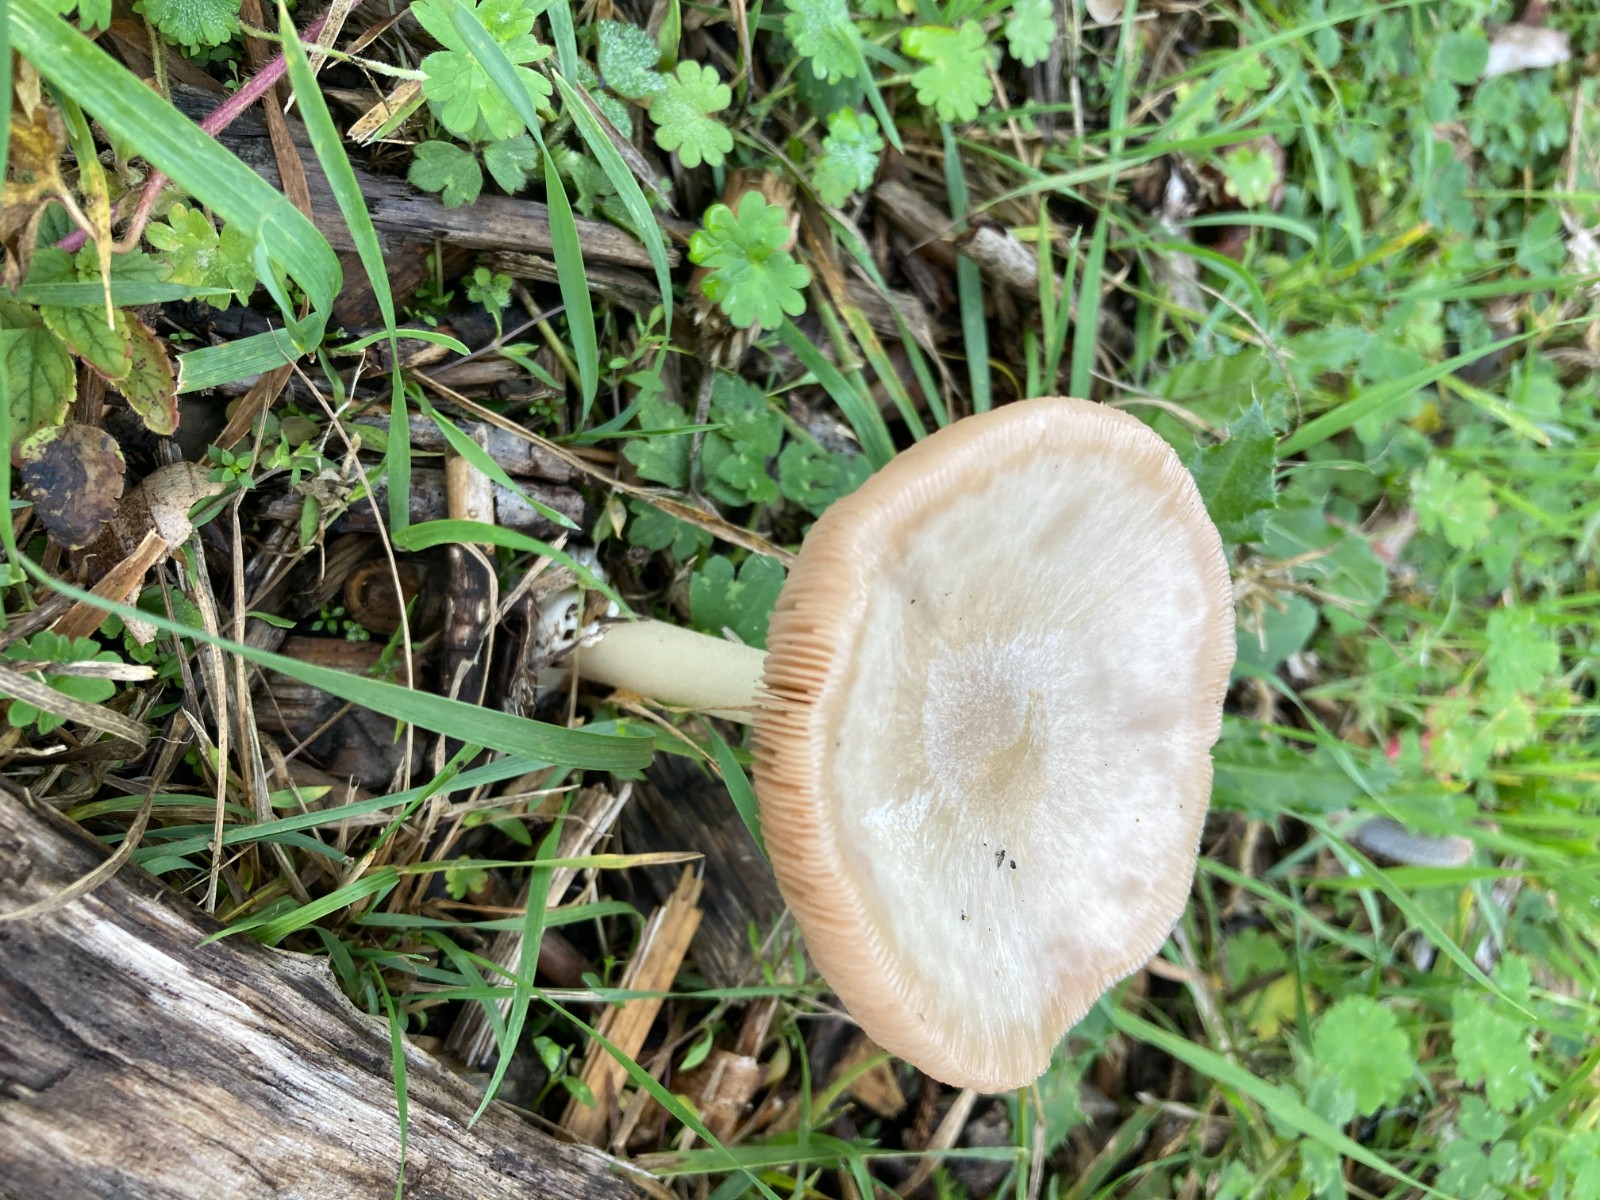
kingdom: Fungi
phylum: Basidiomycota
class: Agaricomycetes
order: Agaricales
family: Pluteaceae
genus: Volvopluteus
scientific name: Volvopluteus gloiocephalus
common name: høj posesvamp
